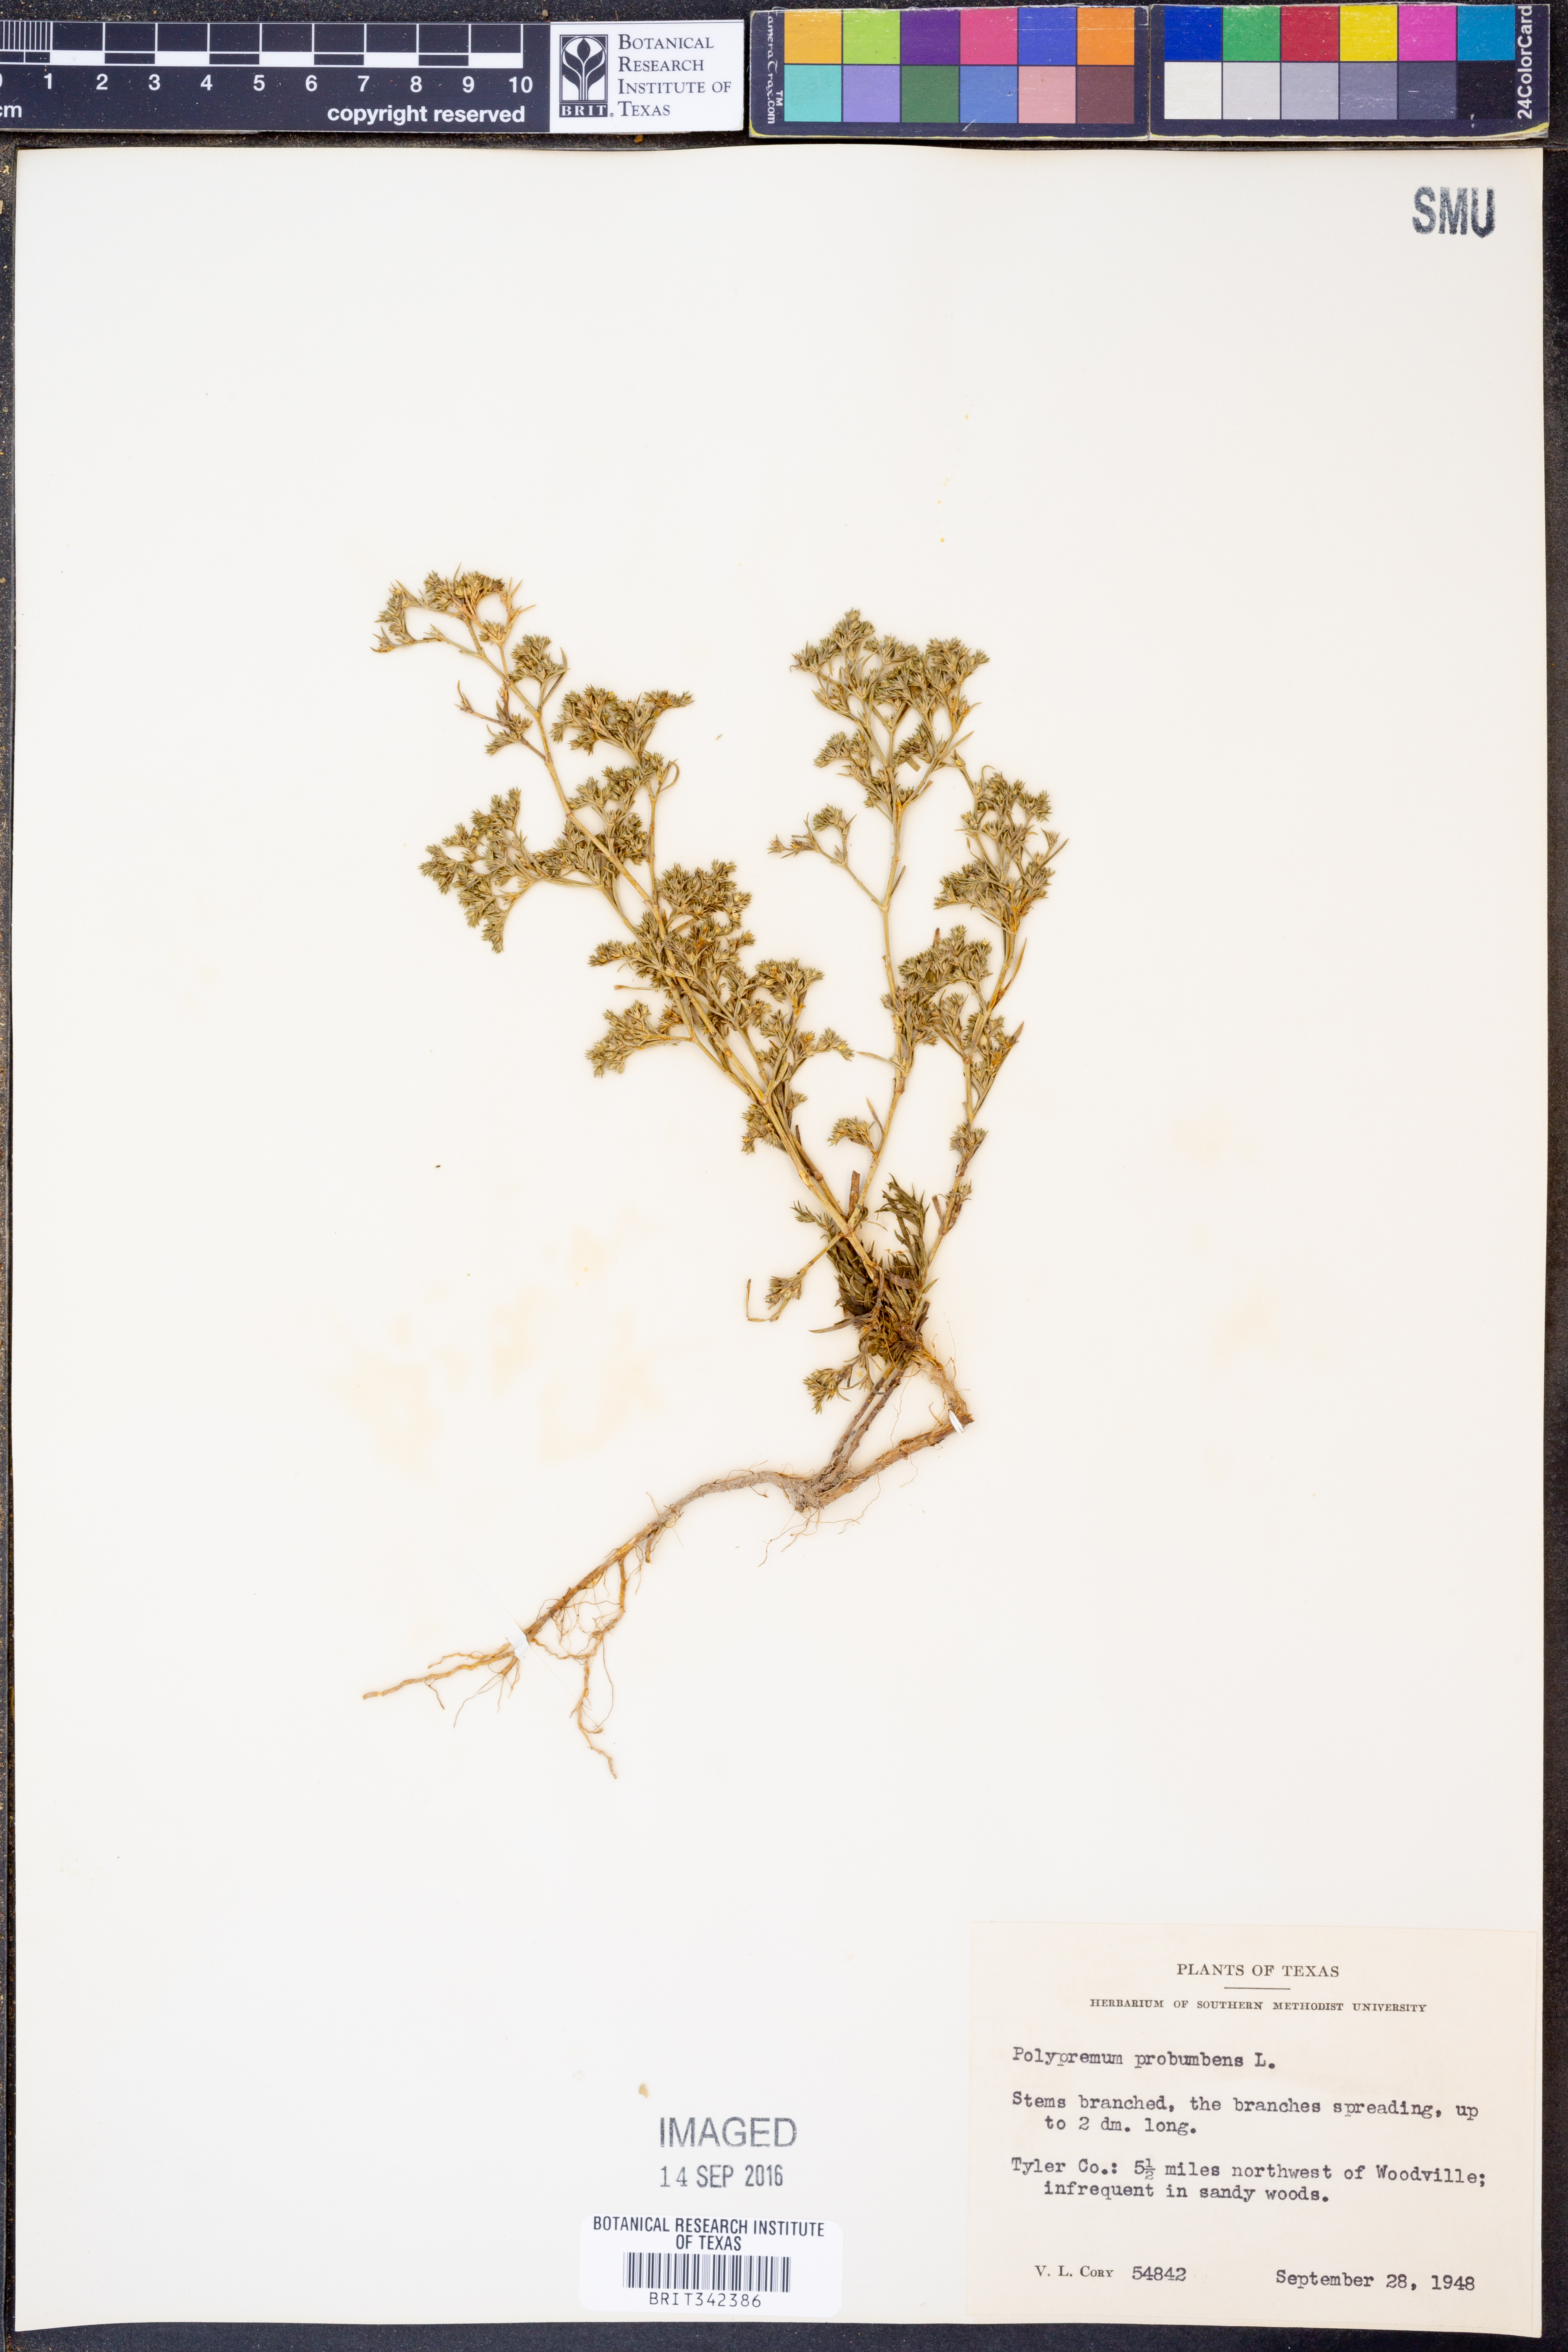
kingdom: Plantae
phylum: Tracheophyta
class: Magnoliopsida
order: Lamiales
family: Tetrachondraceae
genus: Polypremum
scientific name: Polypremum procumbens
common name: Juniper-leaf
